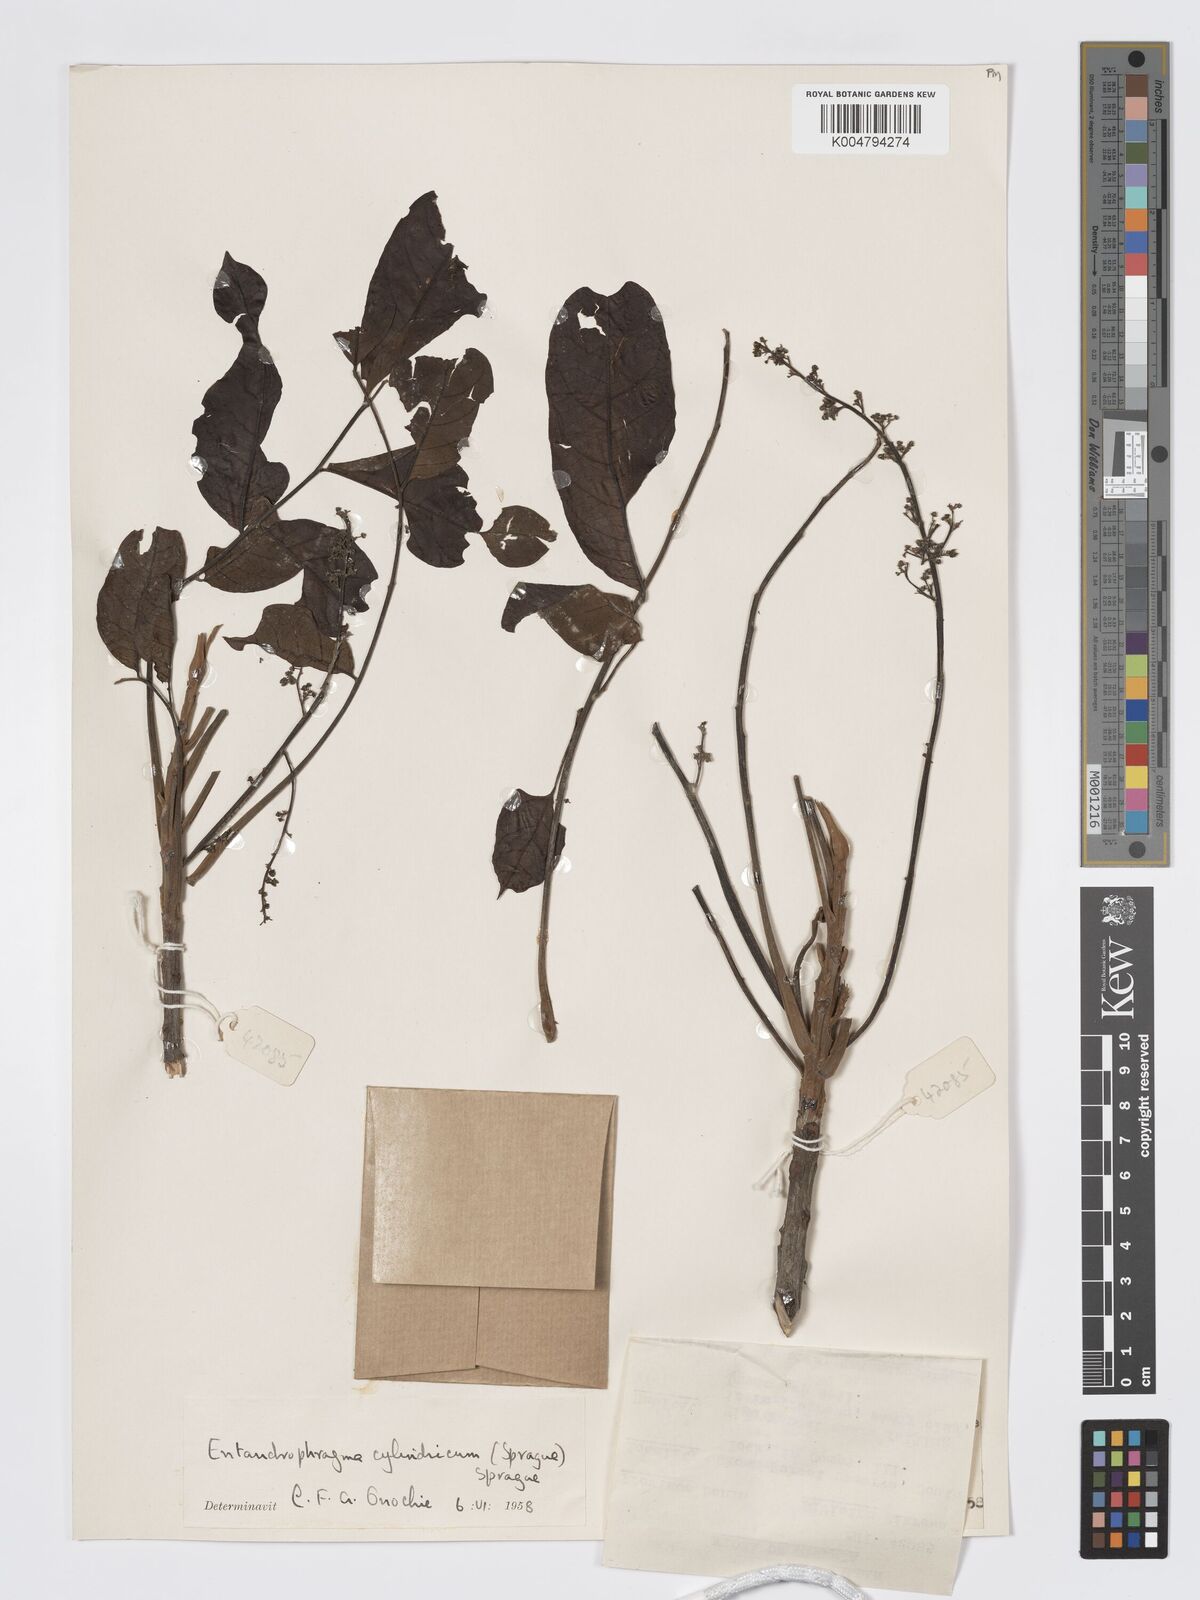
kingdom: Plantae
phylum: Tracheophyta
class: Magnoliopsida
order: Sapindales
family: Meliaceae
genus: Entandrophragma
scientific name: Entandrophragma cylindricum
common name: Sapele
